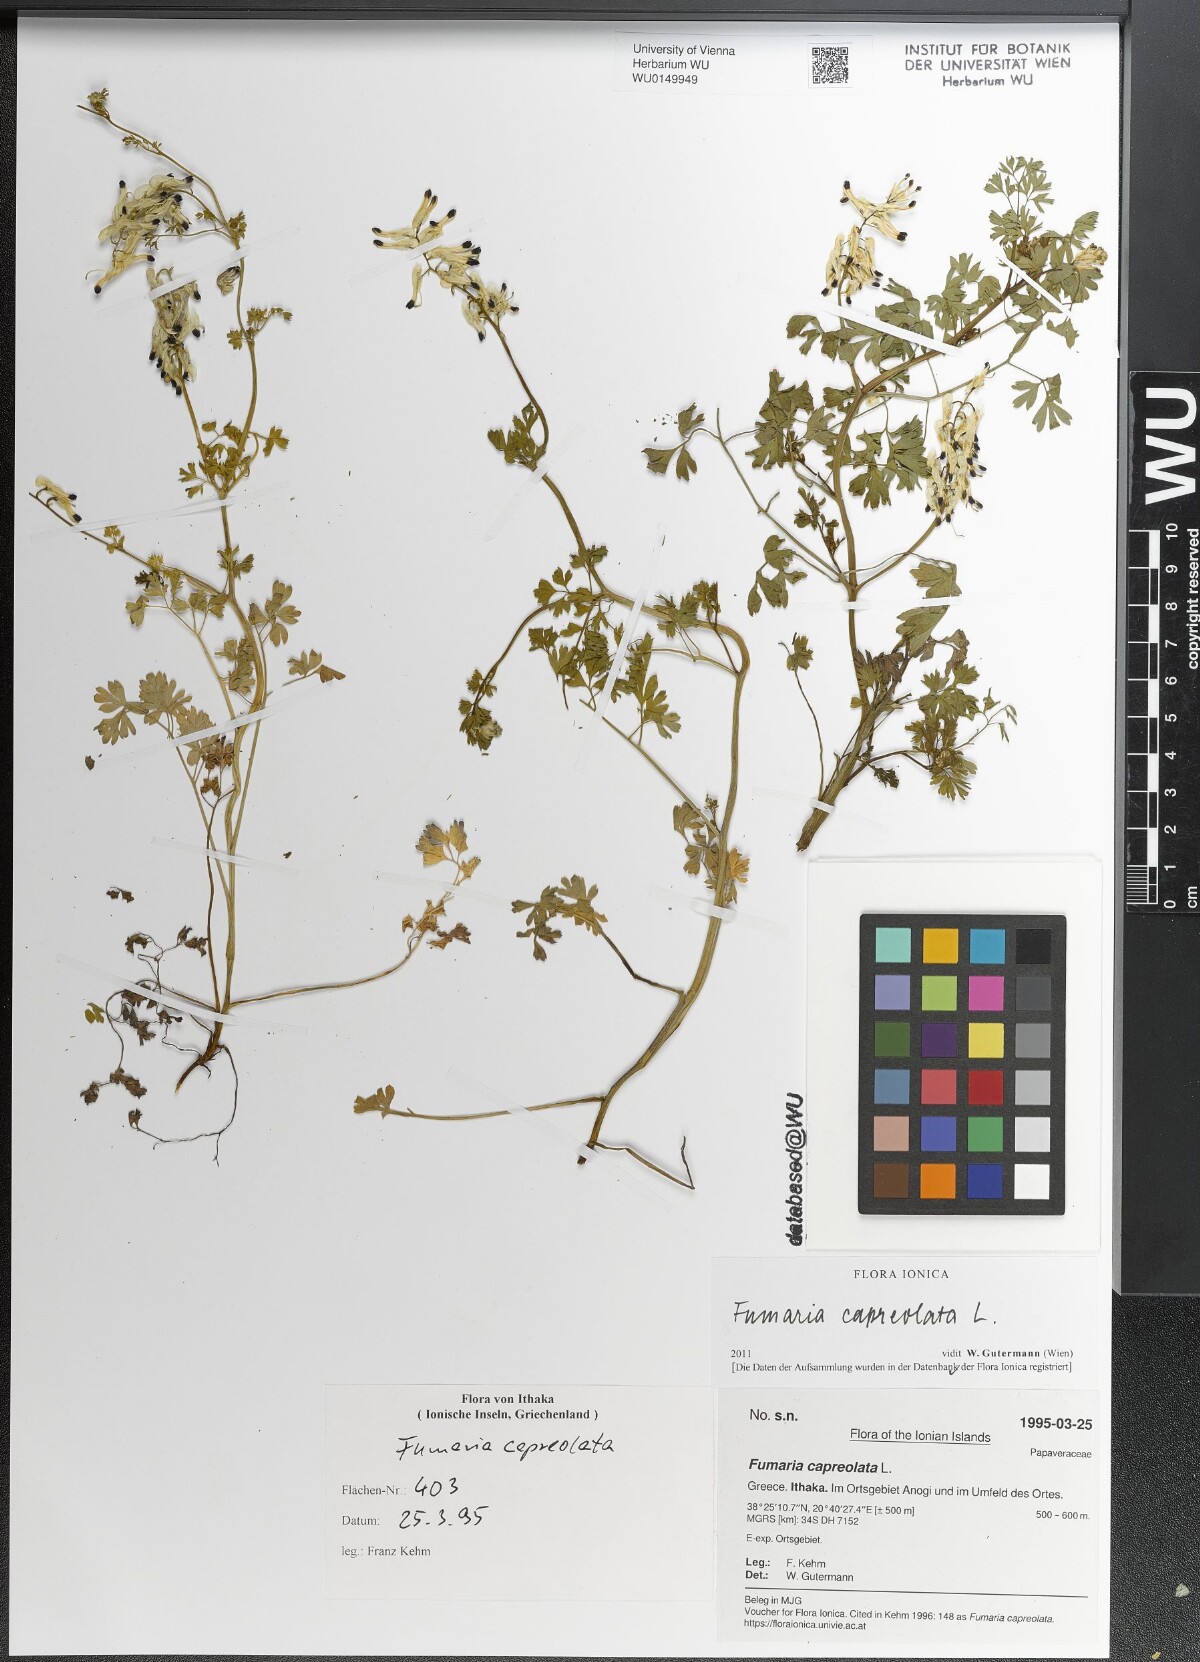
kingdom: Plantae
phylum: Tracheophyta
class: Magnoliopsida
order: Ranunculales
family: Papaveraceae
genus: Fumaria
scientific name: Fumaria capreolata
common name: White ramping-fumitory
